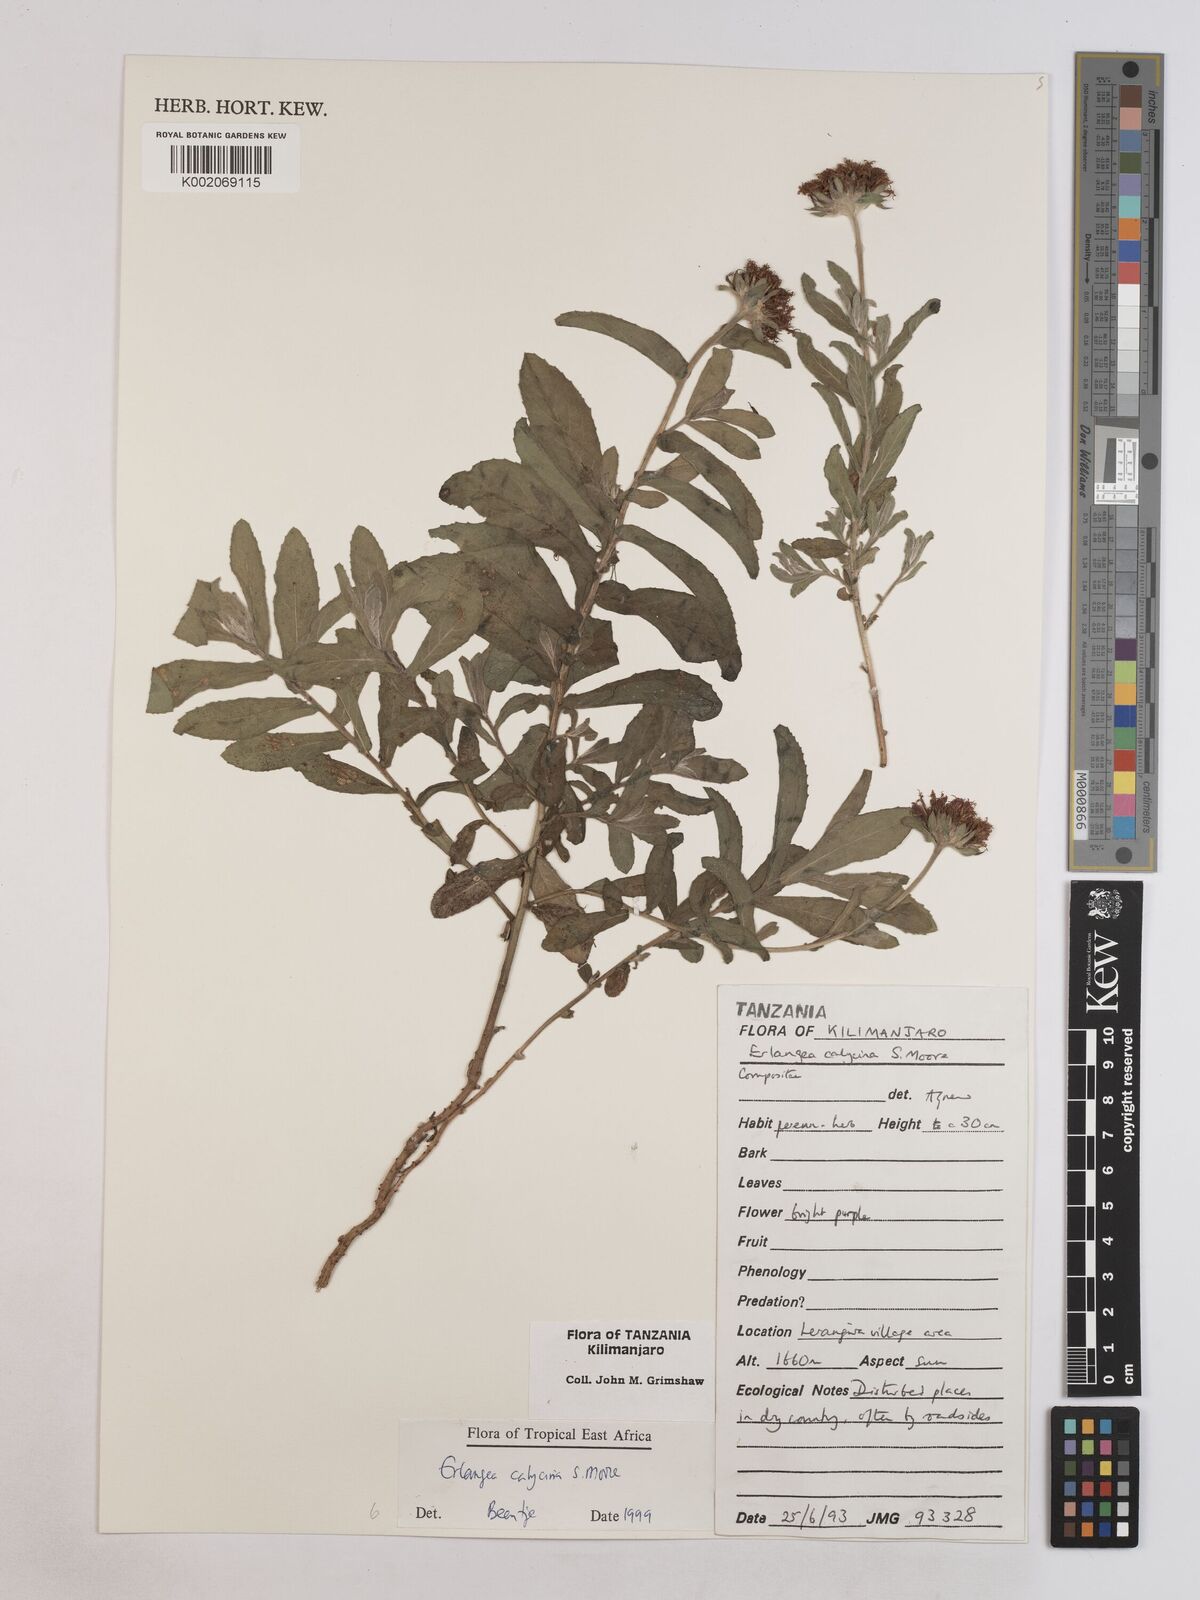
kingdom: Plantae
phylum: Tracheophyta
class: Magnoliopsida
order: Asterales
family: Asteraceae
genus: Erlangea
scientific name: Erlangea calycina
